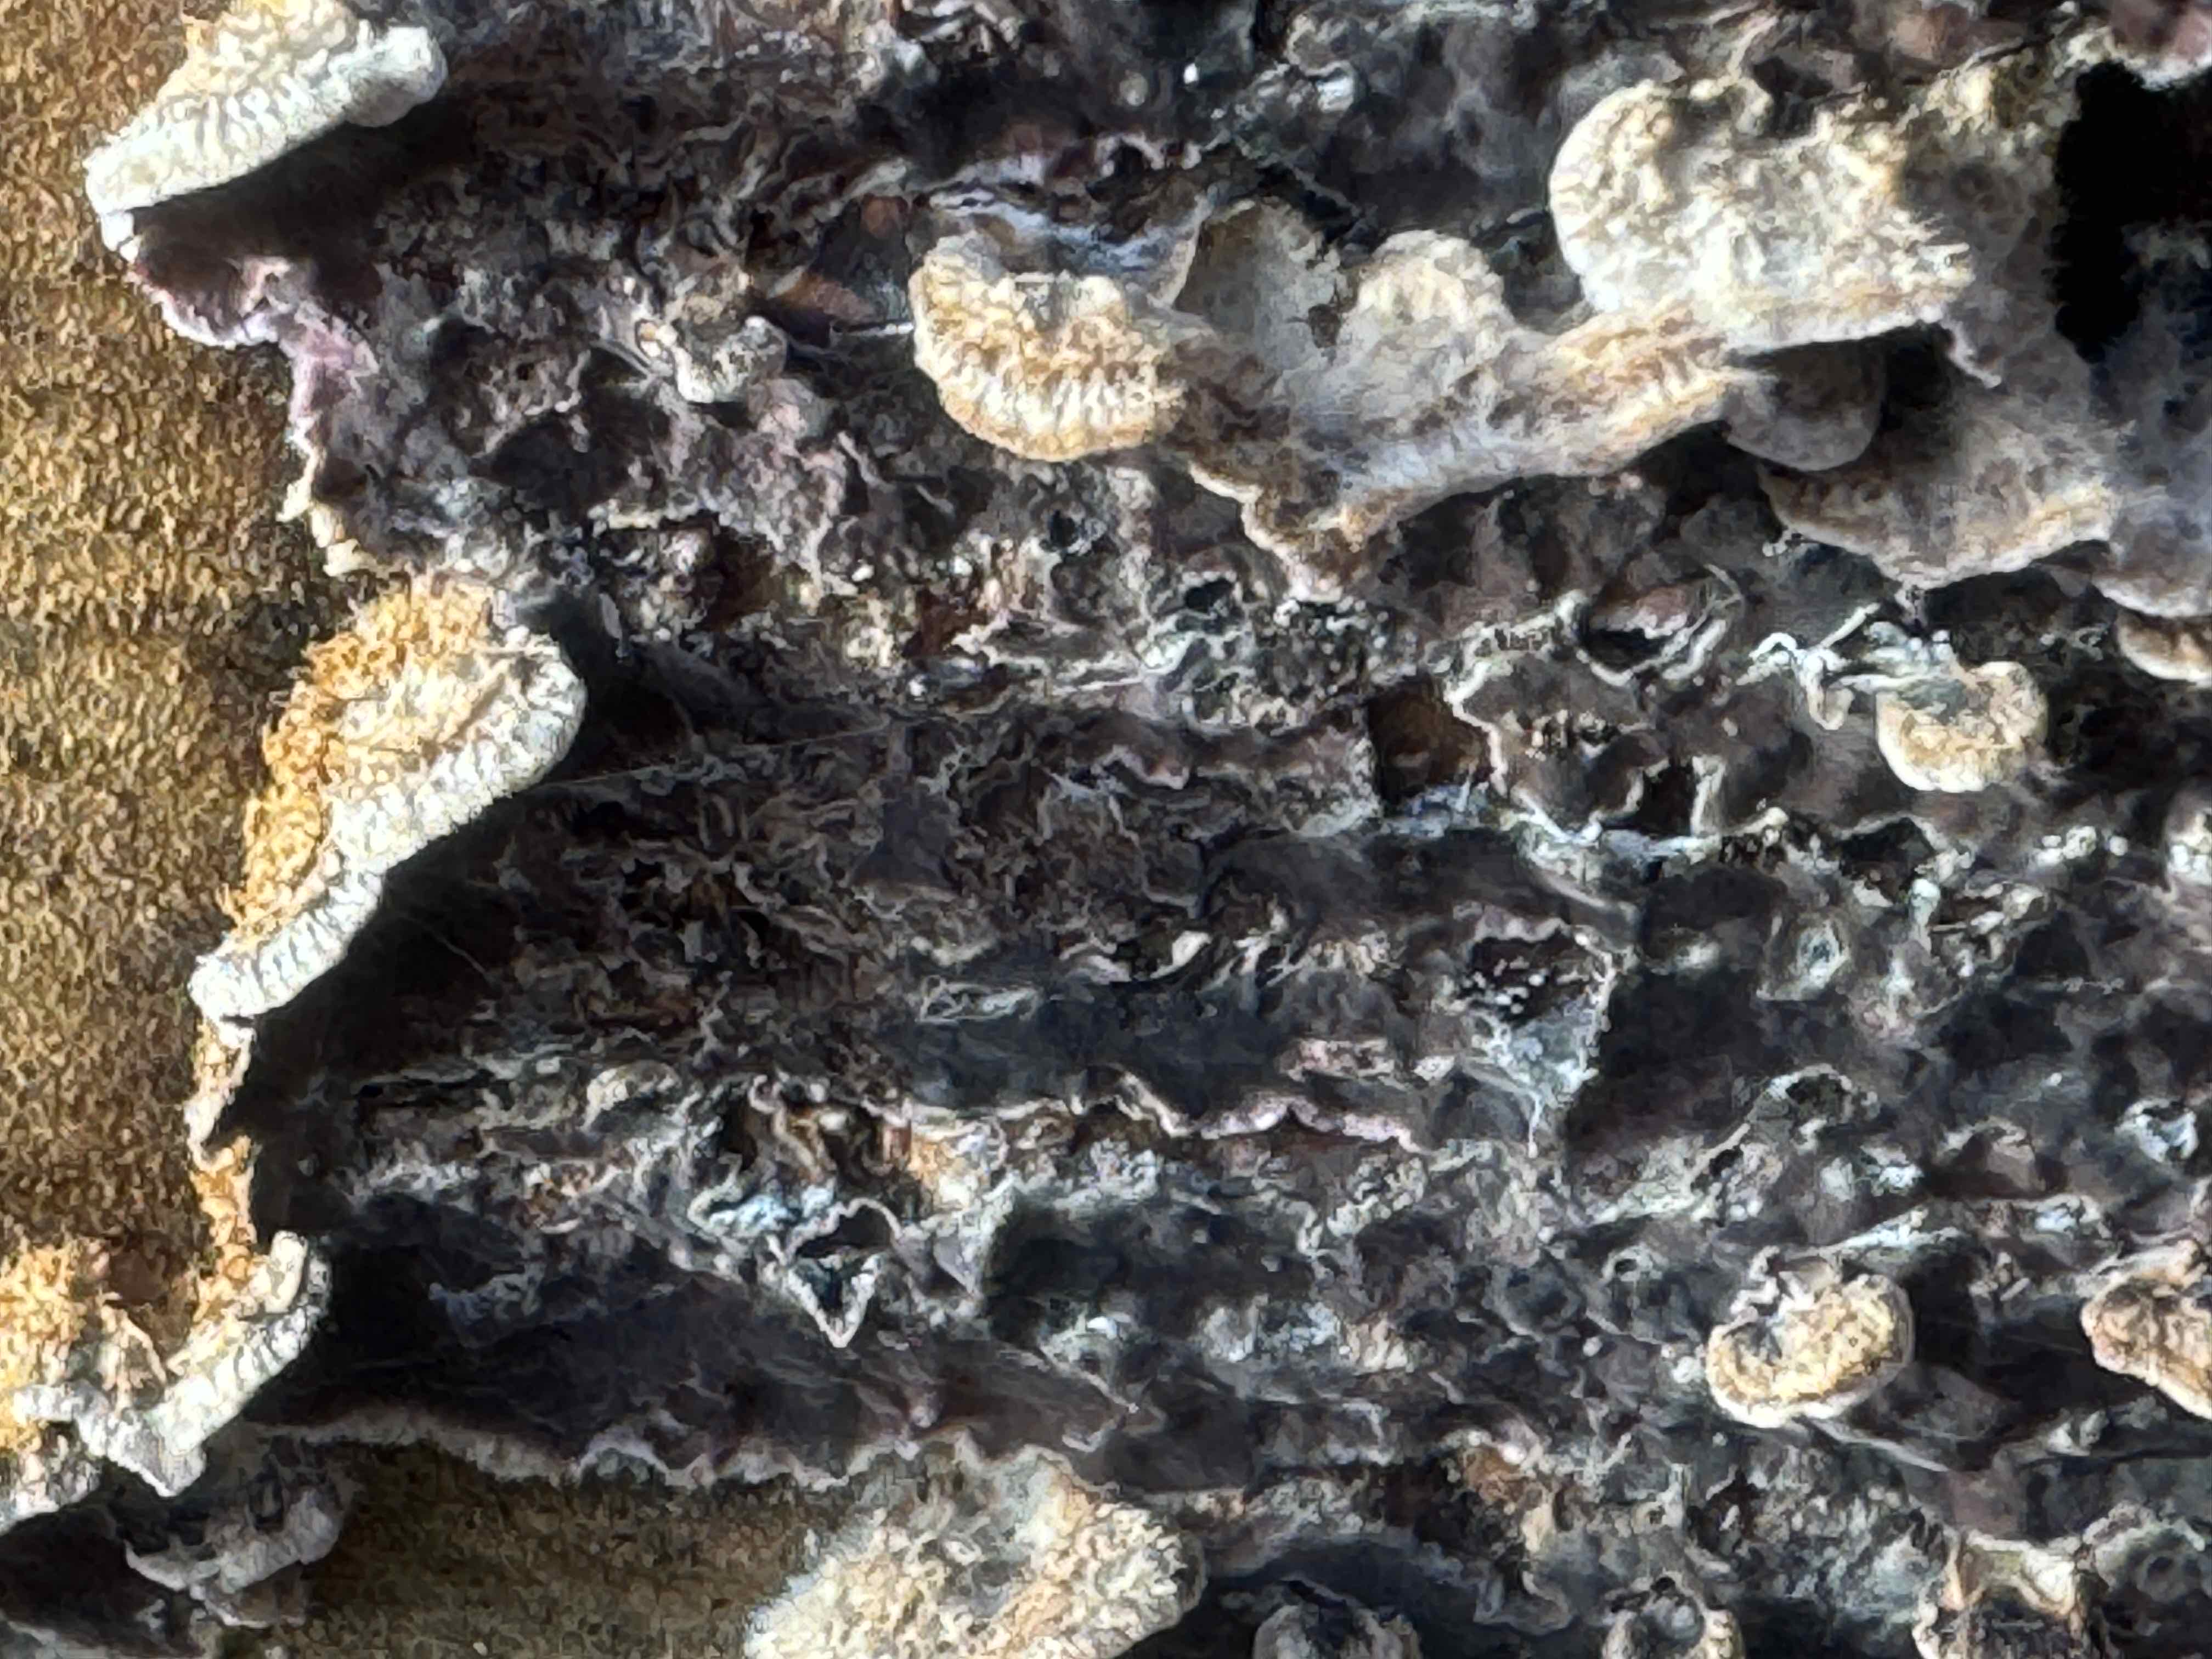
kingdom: Fungi
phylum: Basidiomycota
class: Agaricomycetes
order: Agaricales
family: Cyphellaceae
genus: Chondrostereum
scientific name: Chondrostereum purpureum
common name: purpurlædersvamp
